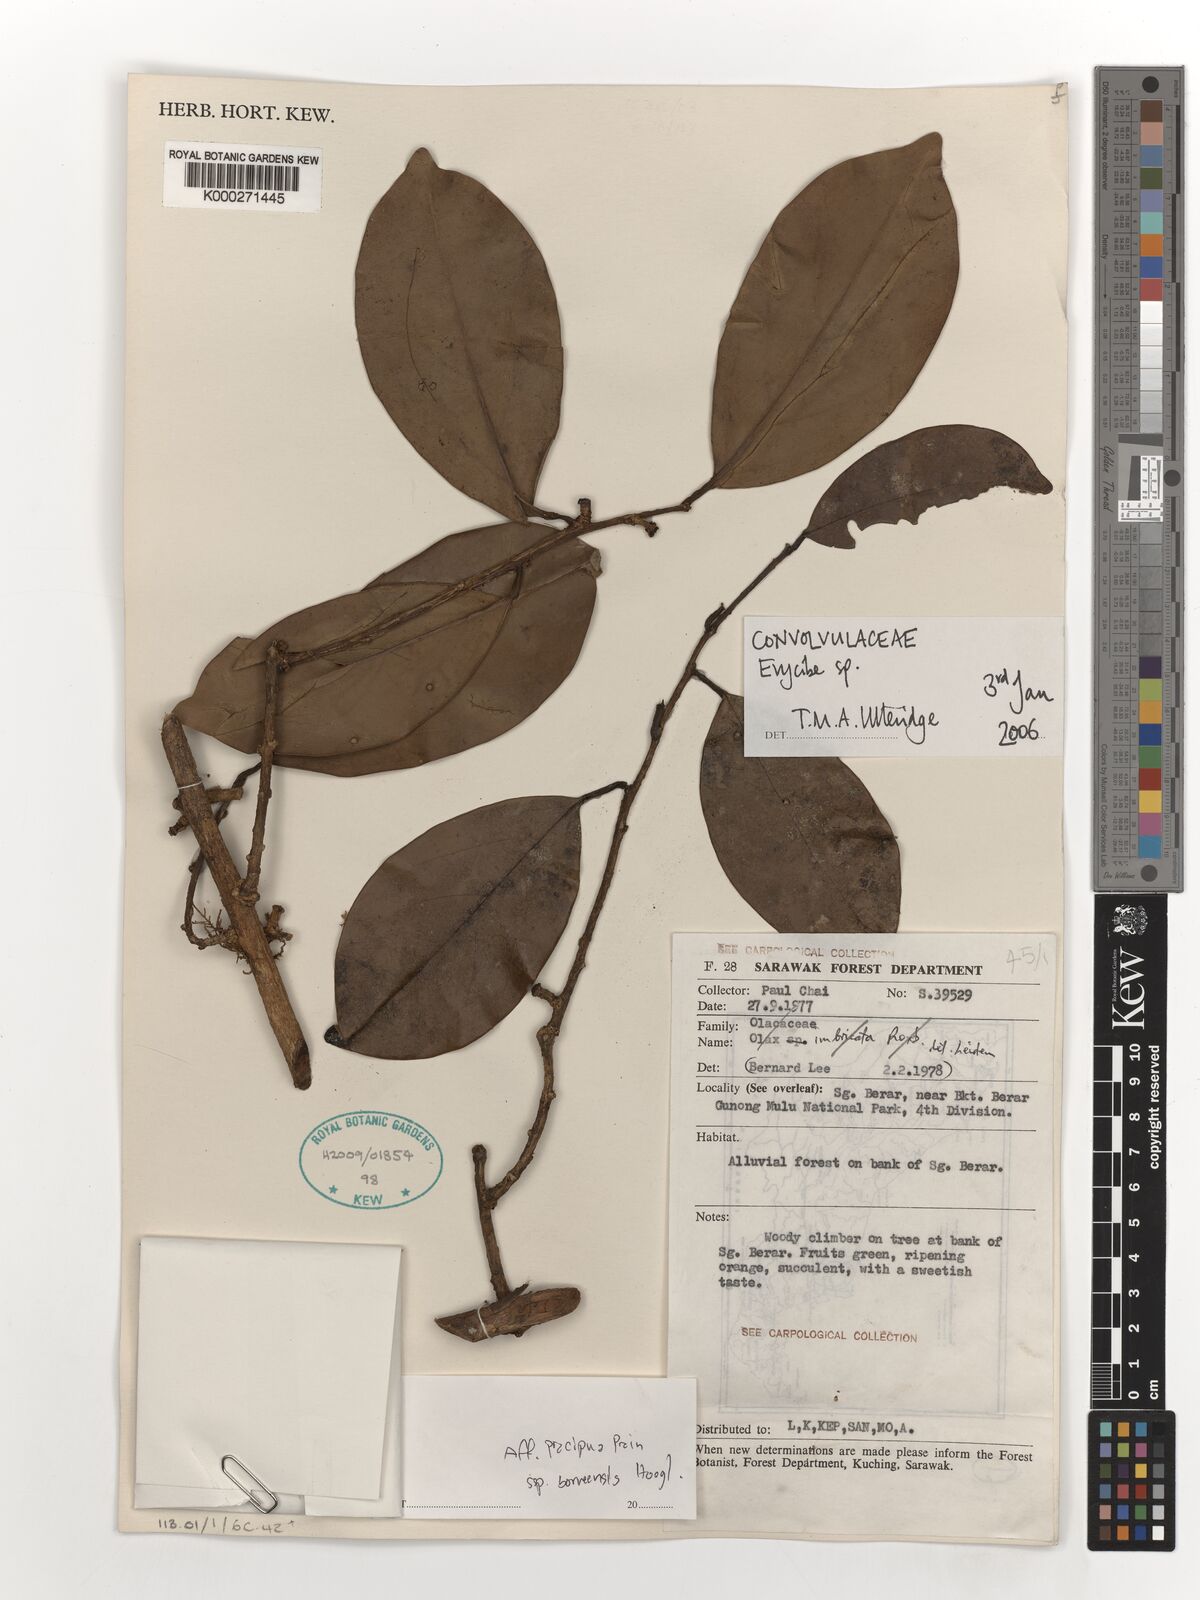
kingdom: Plantae
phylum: Tracheophyta
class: Magnoliopsida
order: Solanales
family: Convolvulaceae
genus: Erycibe
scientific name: Erycibe
